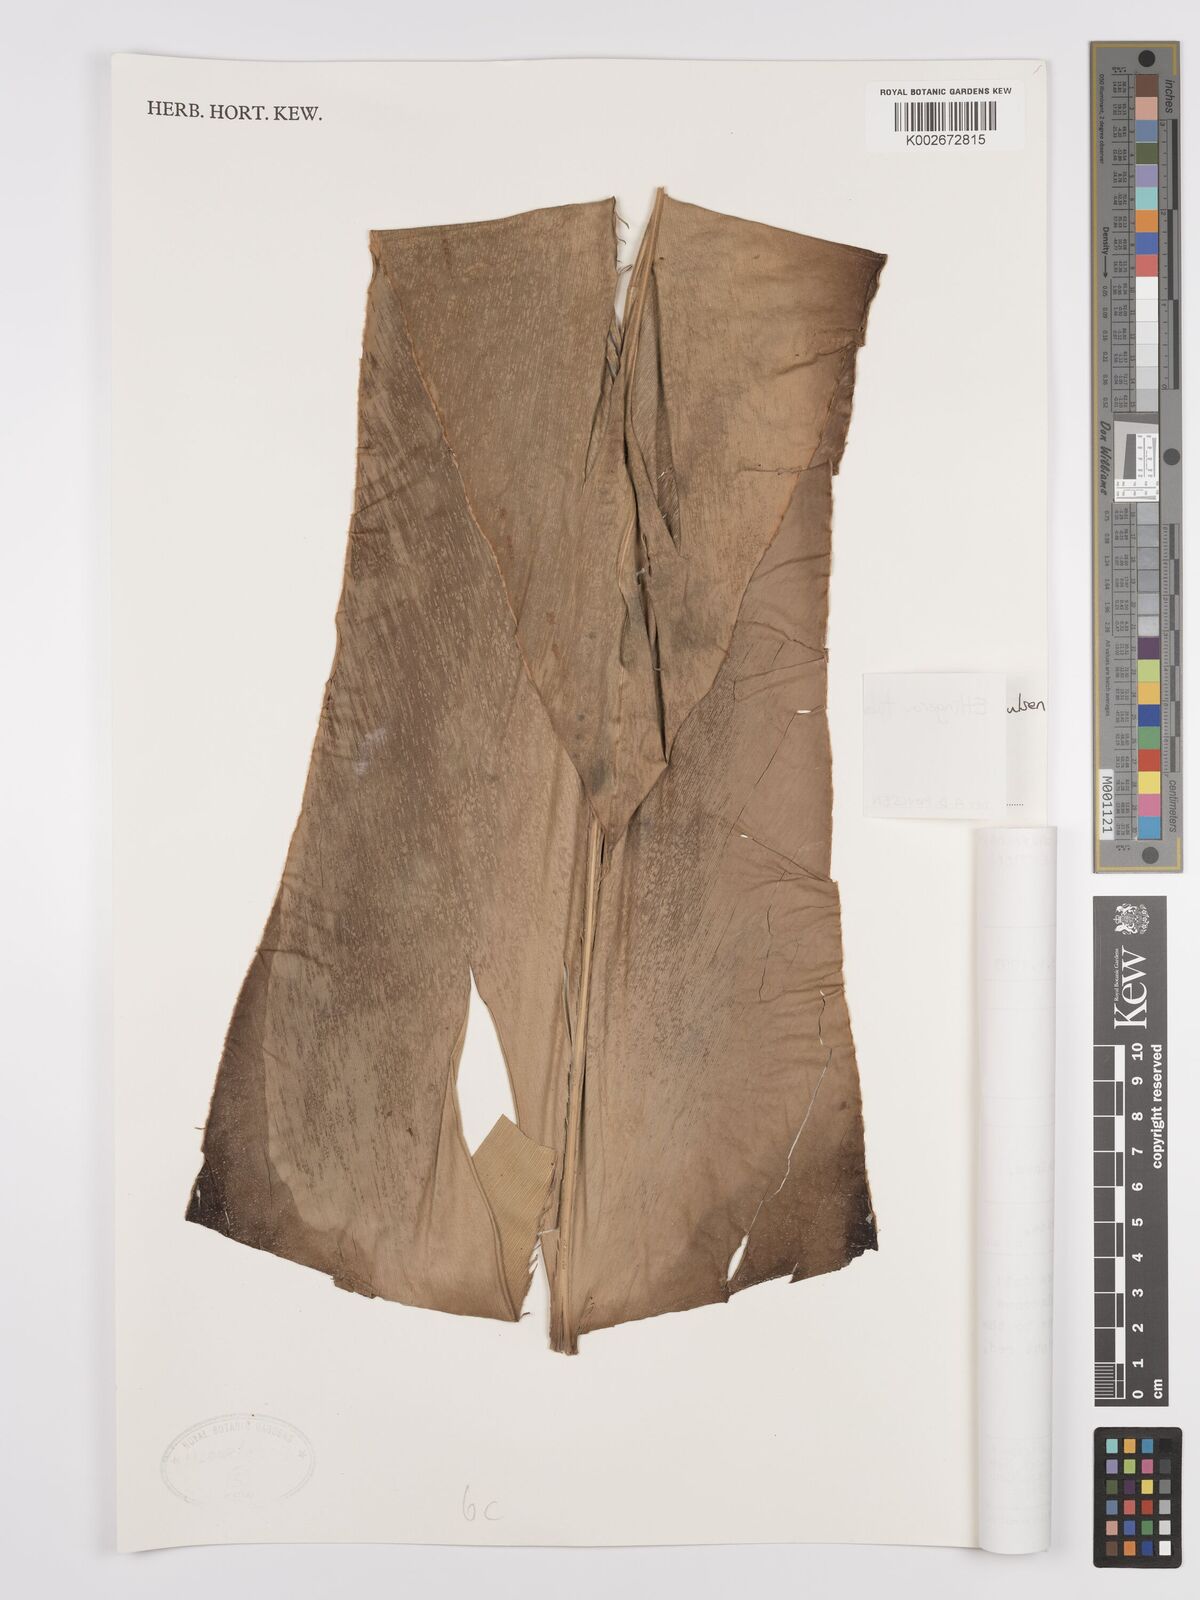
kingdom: Plantae
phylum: Tracheophyta
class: Liliopsida
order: Zingiberales
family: Zingiberaceae
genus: Etlingera
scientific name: Etlingera tubilabrum
